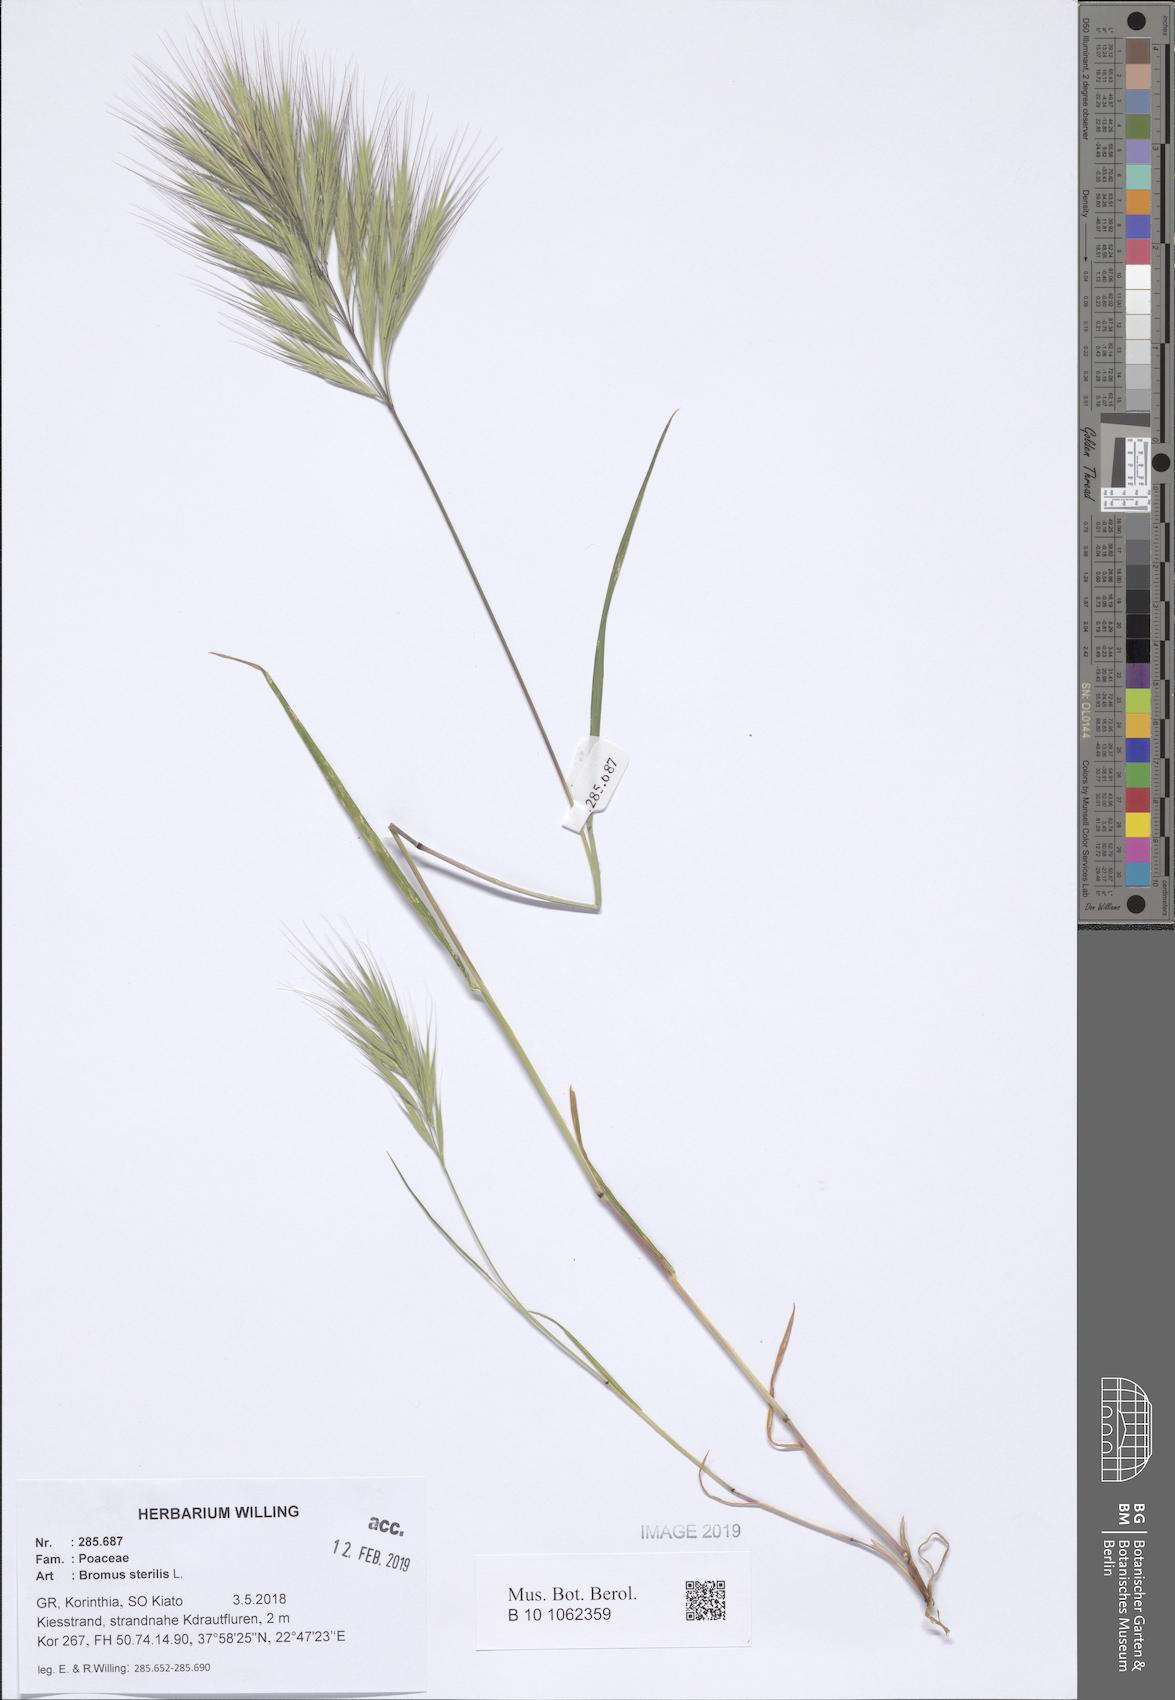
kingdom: Plantae
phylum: Tracheophyta
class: Liliopsida
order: Poales
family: Poaceae
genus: Bromus
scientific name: Bromus sterilis
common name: Poverty brome
